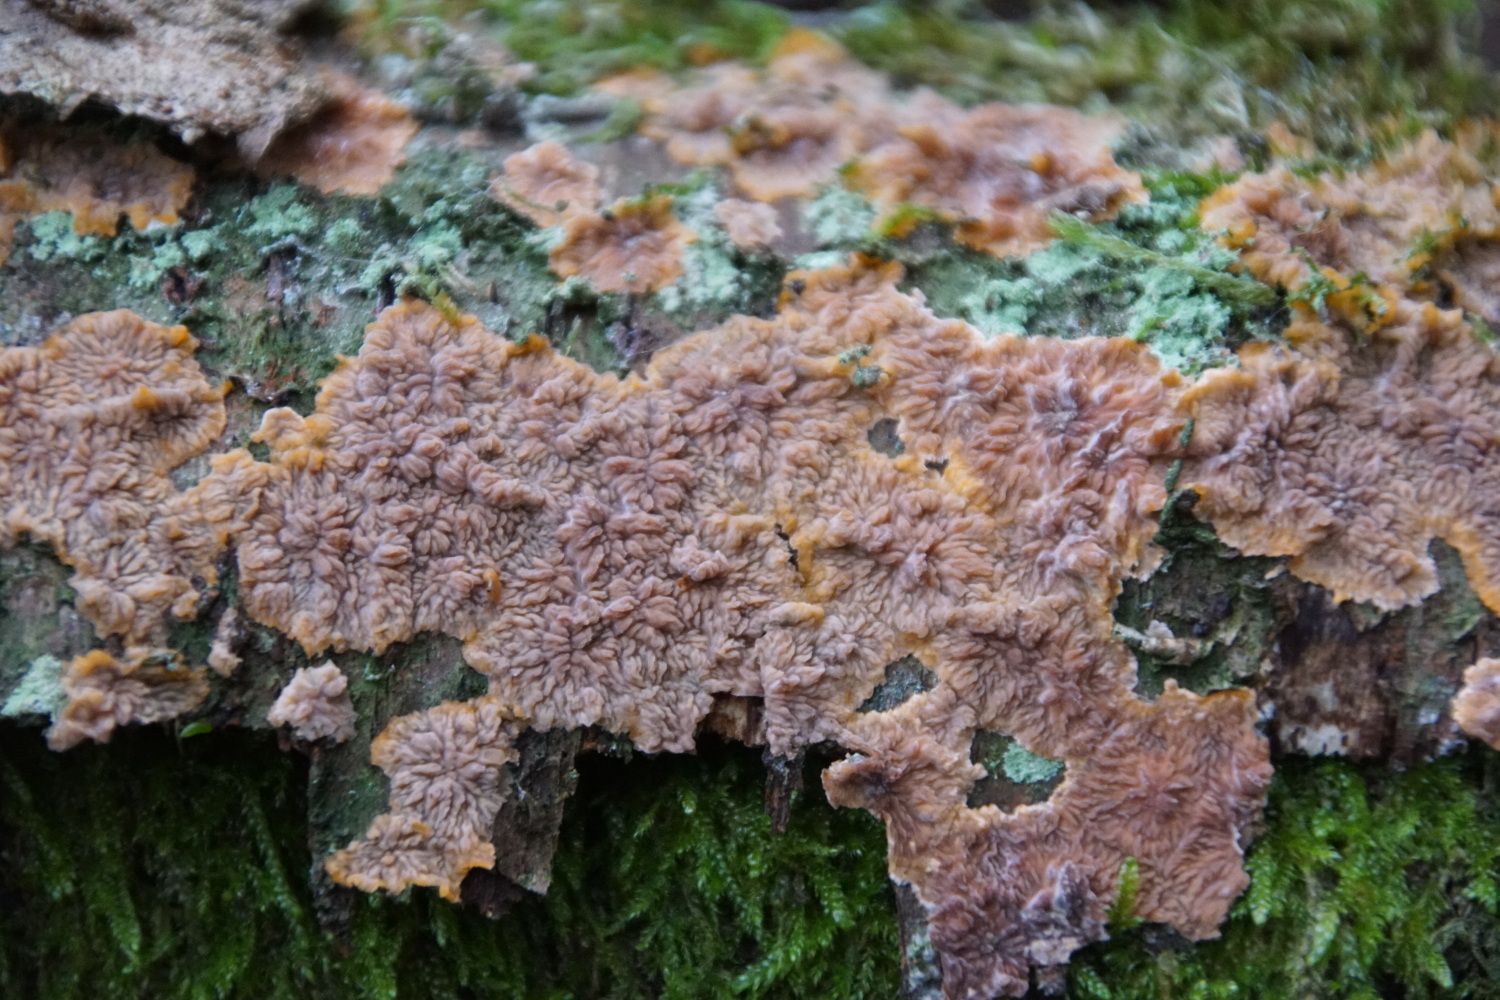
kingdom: Fungi
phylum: Basidiomycota
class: Agaricomycetes
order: Polyporales
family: Meruliaceae
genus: Phlebia
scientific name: Phlebia radiata
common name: stråle-åresvamp
